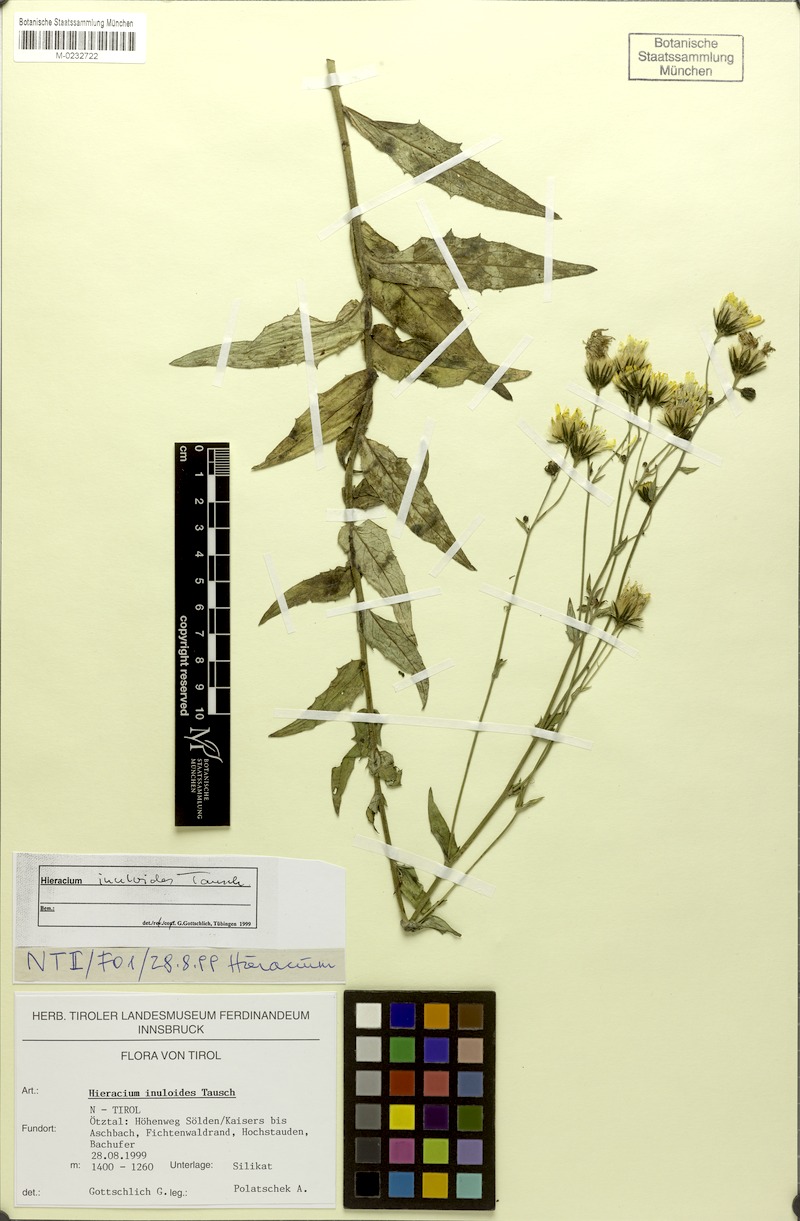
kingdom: Plantae
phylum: Tracheophyta
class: Magnoliopsida
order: Asterales
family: Asteraceae
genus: Hieracium
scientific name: Hieracium inuloides
